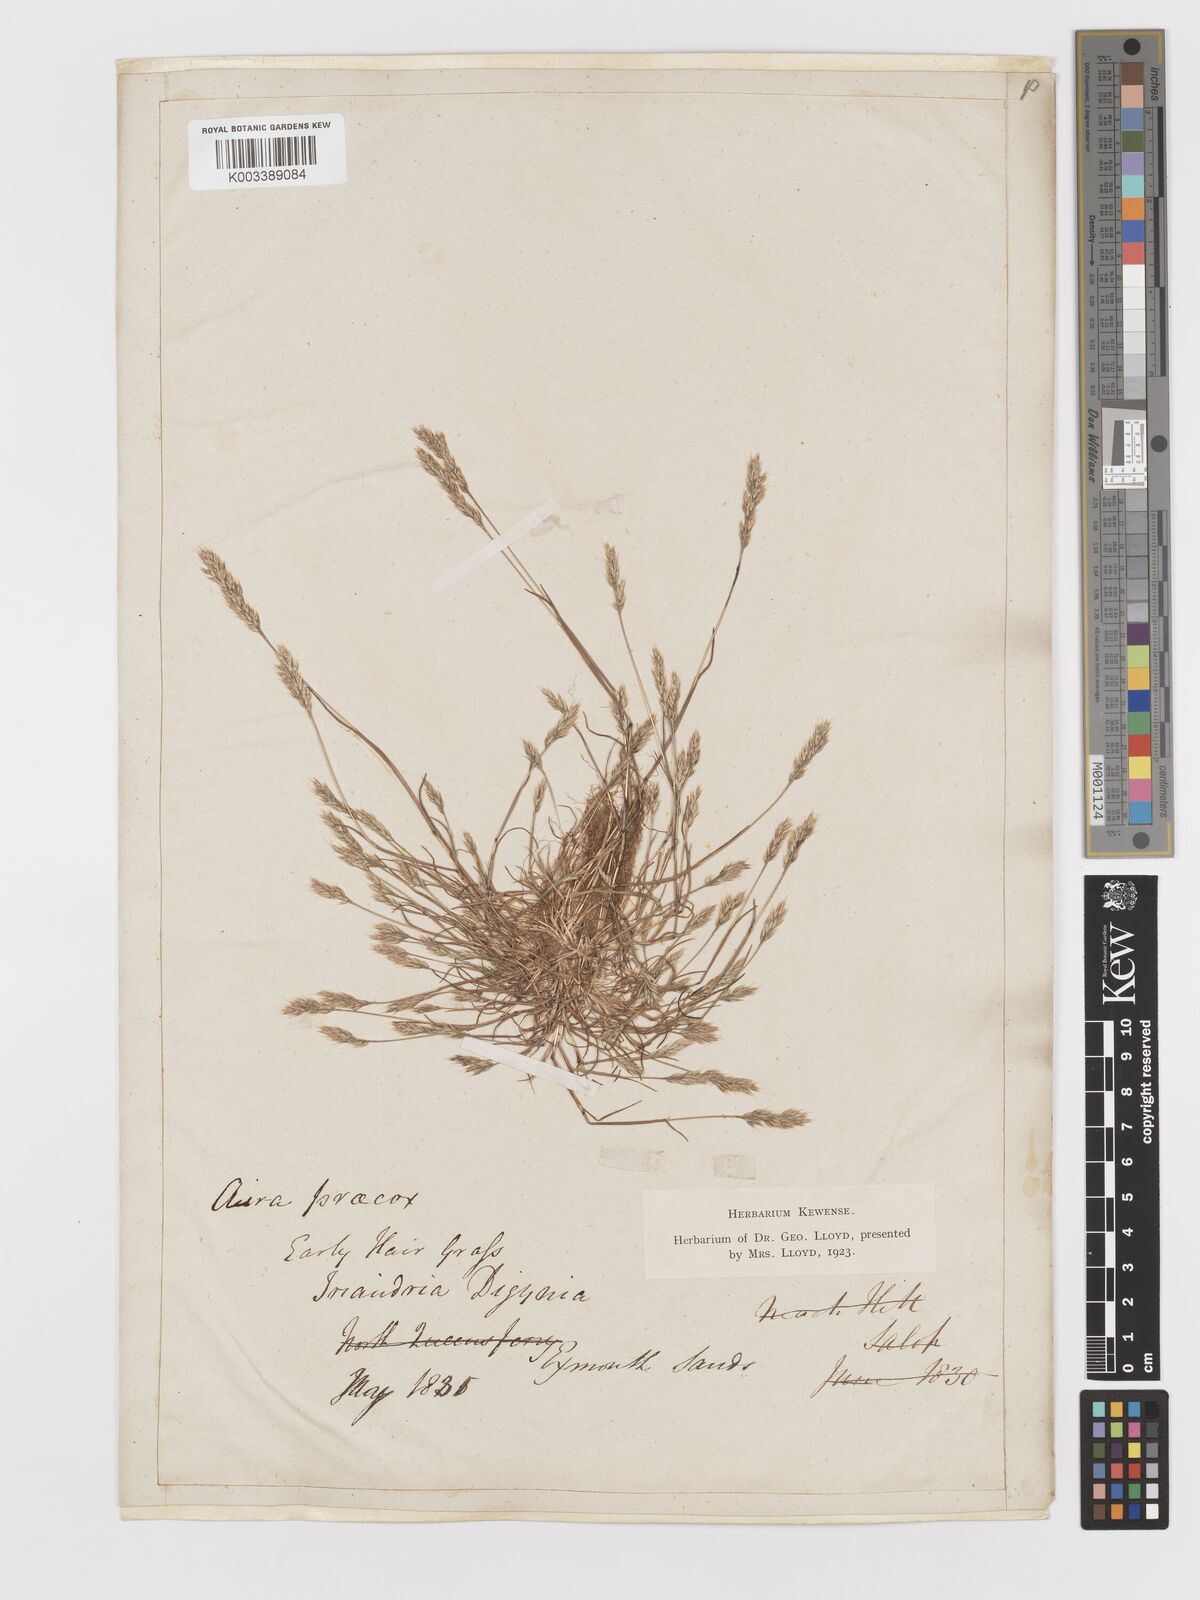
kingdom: Plantae
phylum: Tracheophyta
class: Liliopsida
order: Poales
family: Poaceae
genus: Aira
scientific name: Aira praecox
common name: Early hair-grass
